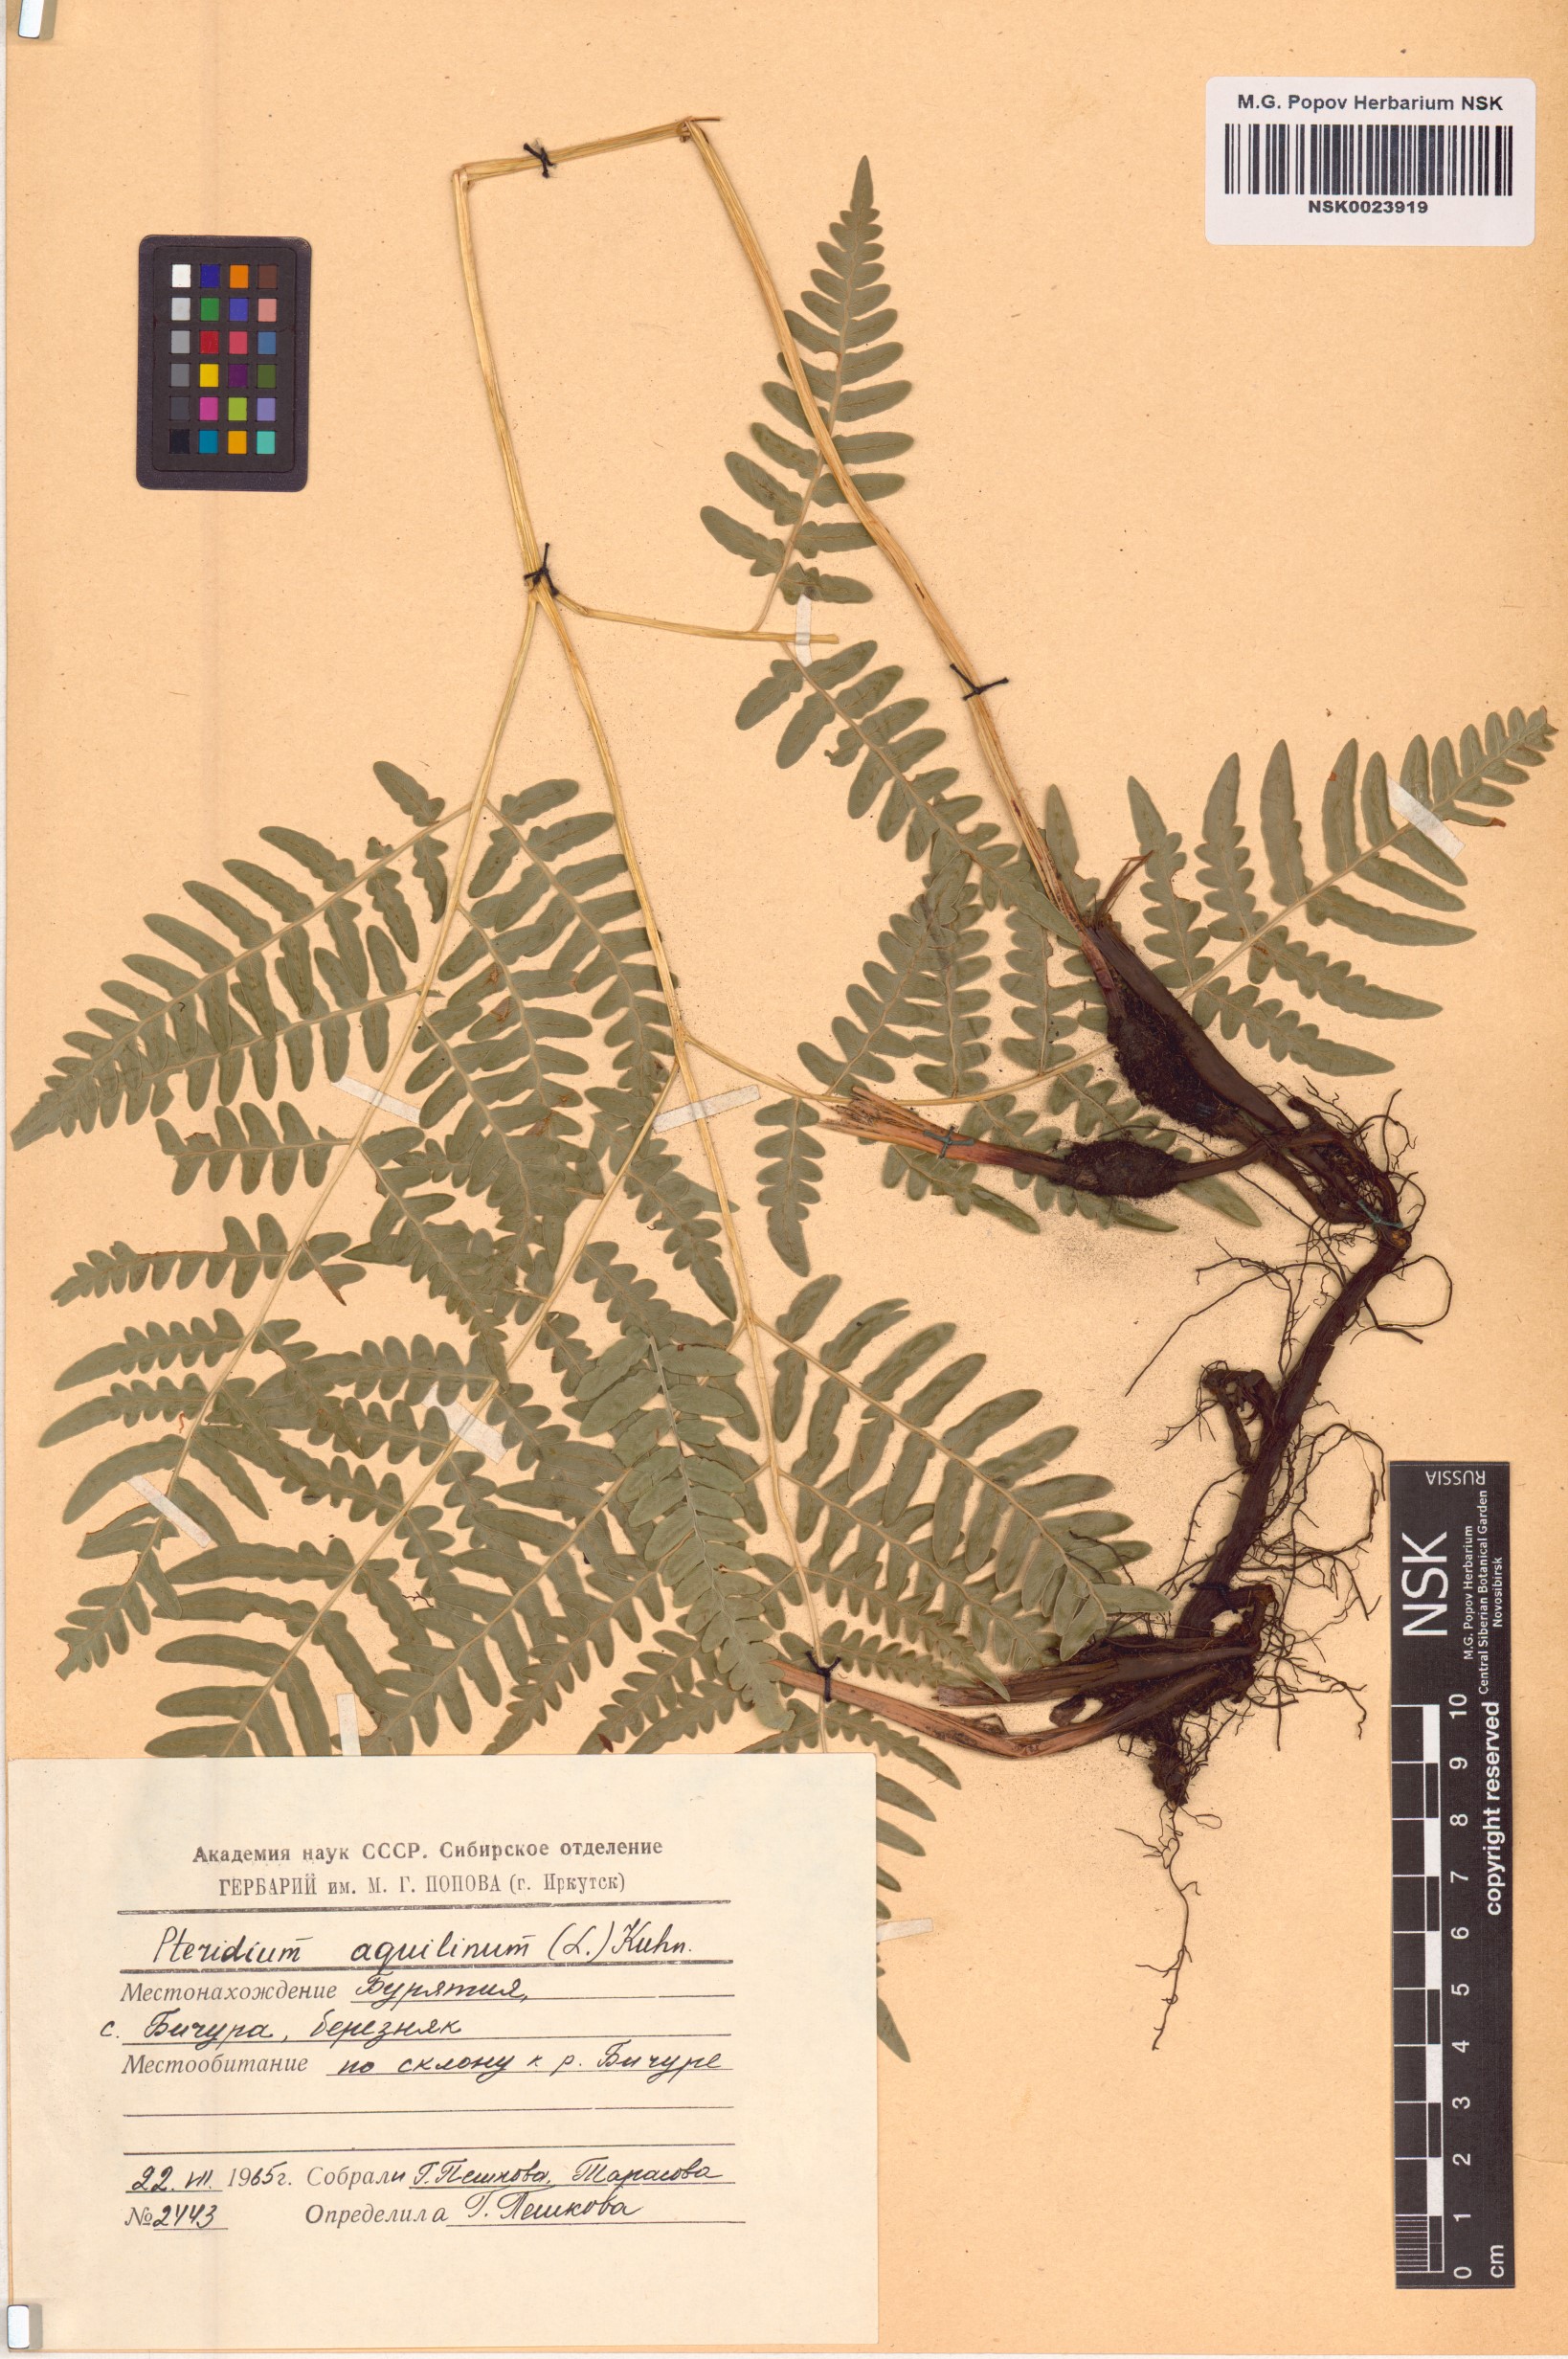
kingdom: Plantae
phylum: Tracheophyta
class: Polypodiopsida
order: Polypodiales
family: Dennstaedtiaceae
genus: Pteridium
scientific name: Pteridium aquilinum
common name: Bracken
